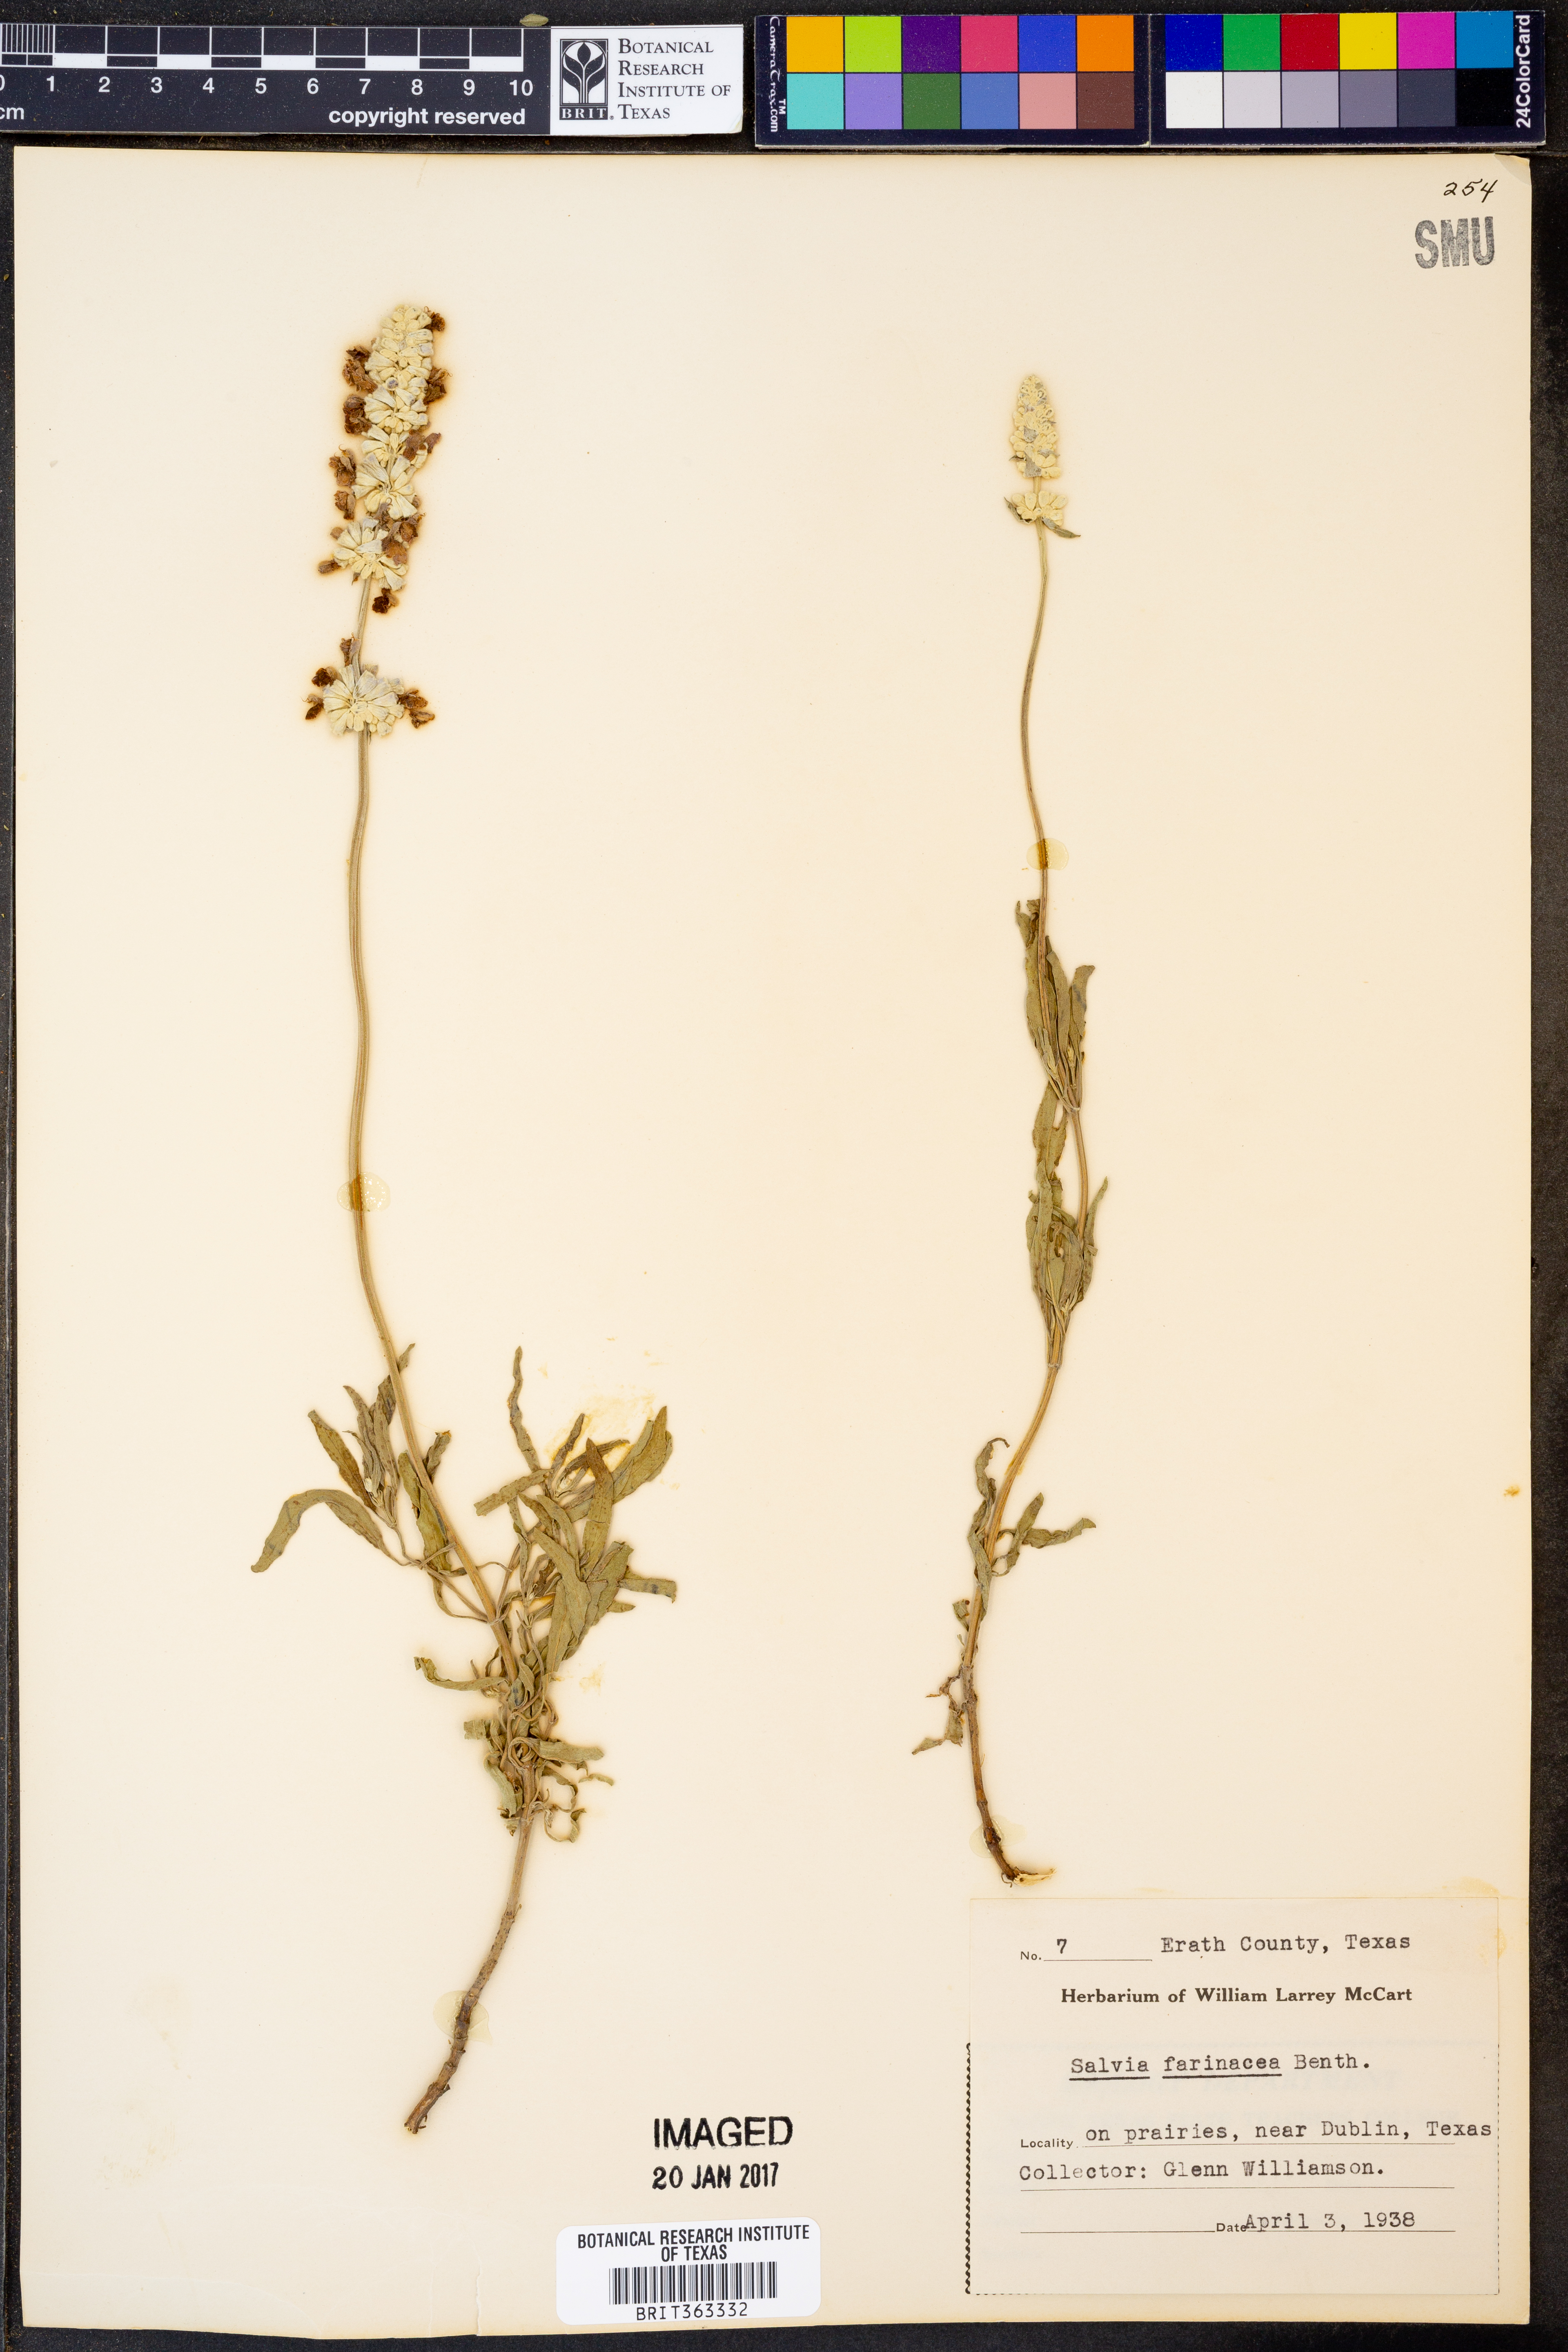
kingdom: Plantae
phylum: Tracheophyta
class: Magnoliopsida
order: Lamiales
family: Lamiaceae
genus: Salvia
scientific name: Salvia farinacea
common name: Mealy sage
